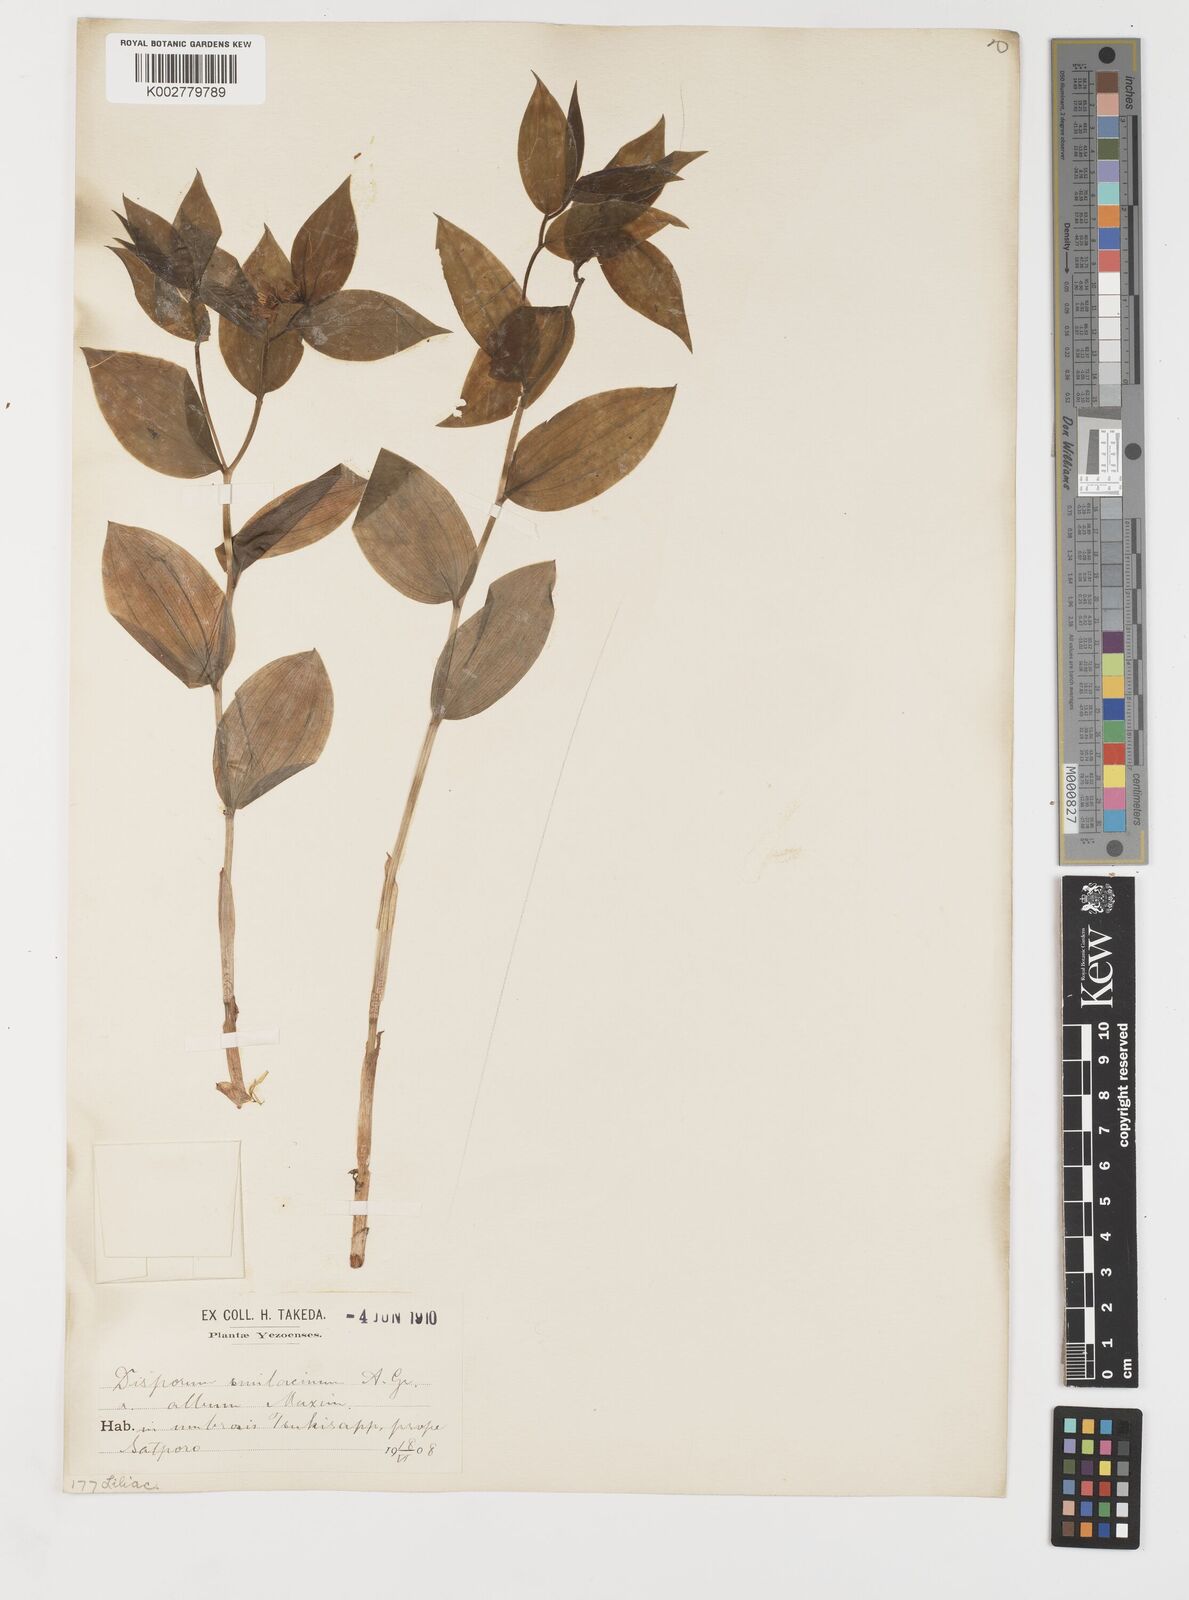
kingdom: Plantae
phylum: Tracheophyta
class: Liliopsida
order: Liliales
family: Colchicaceae
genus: Disporum
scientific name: Disporum smilacinum
